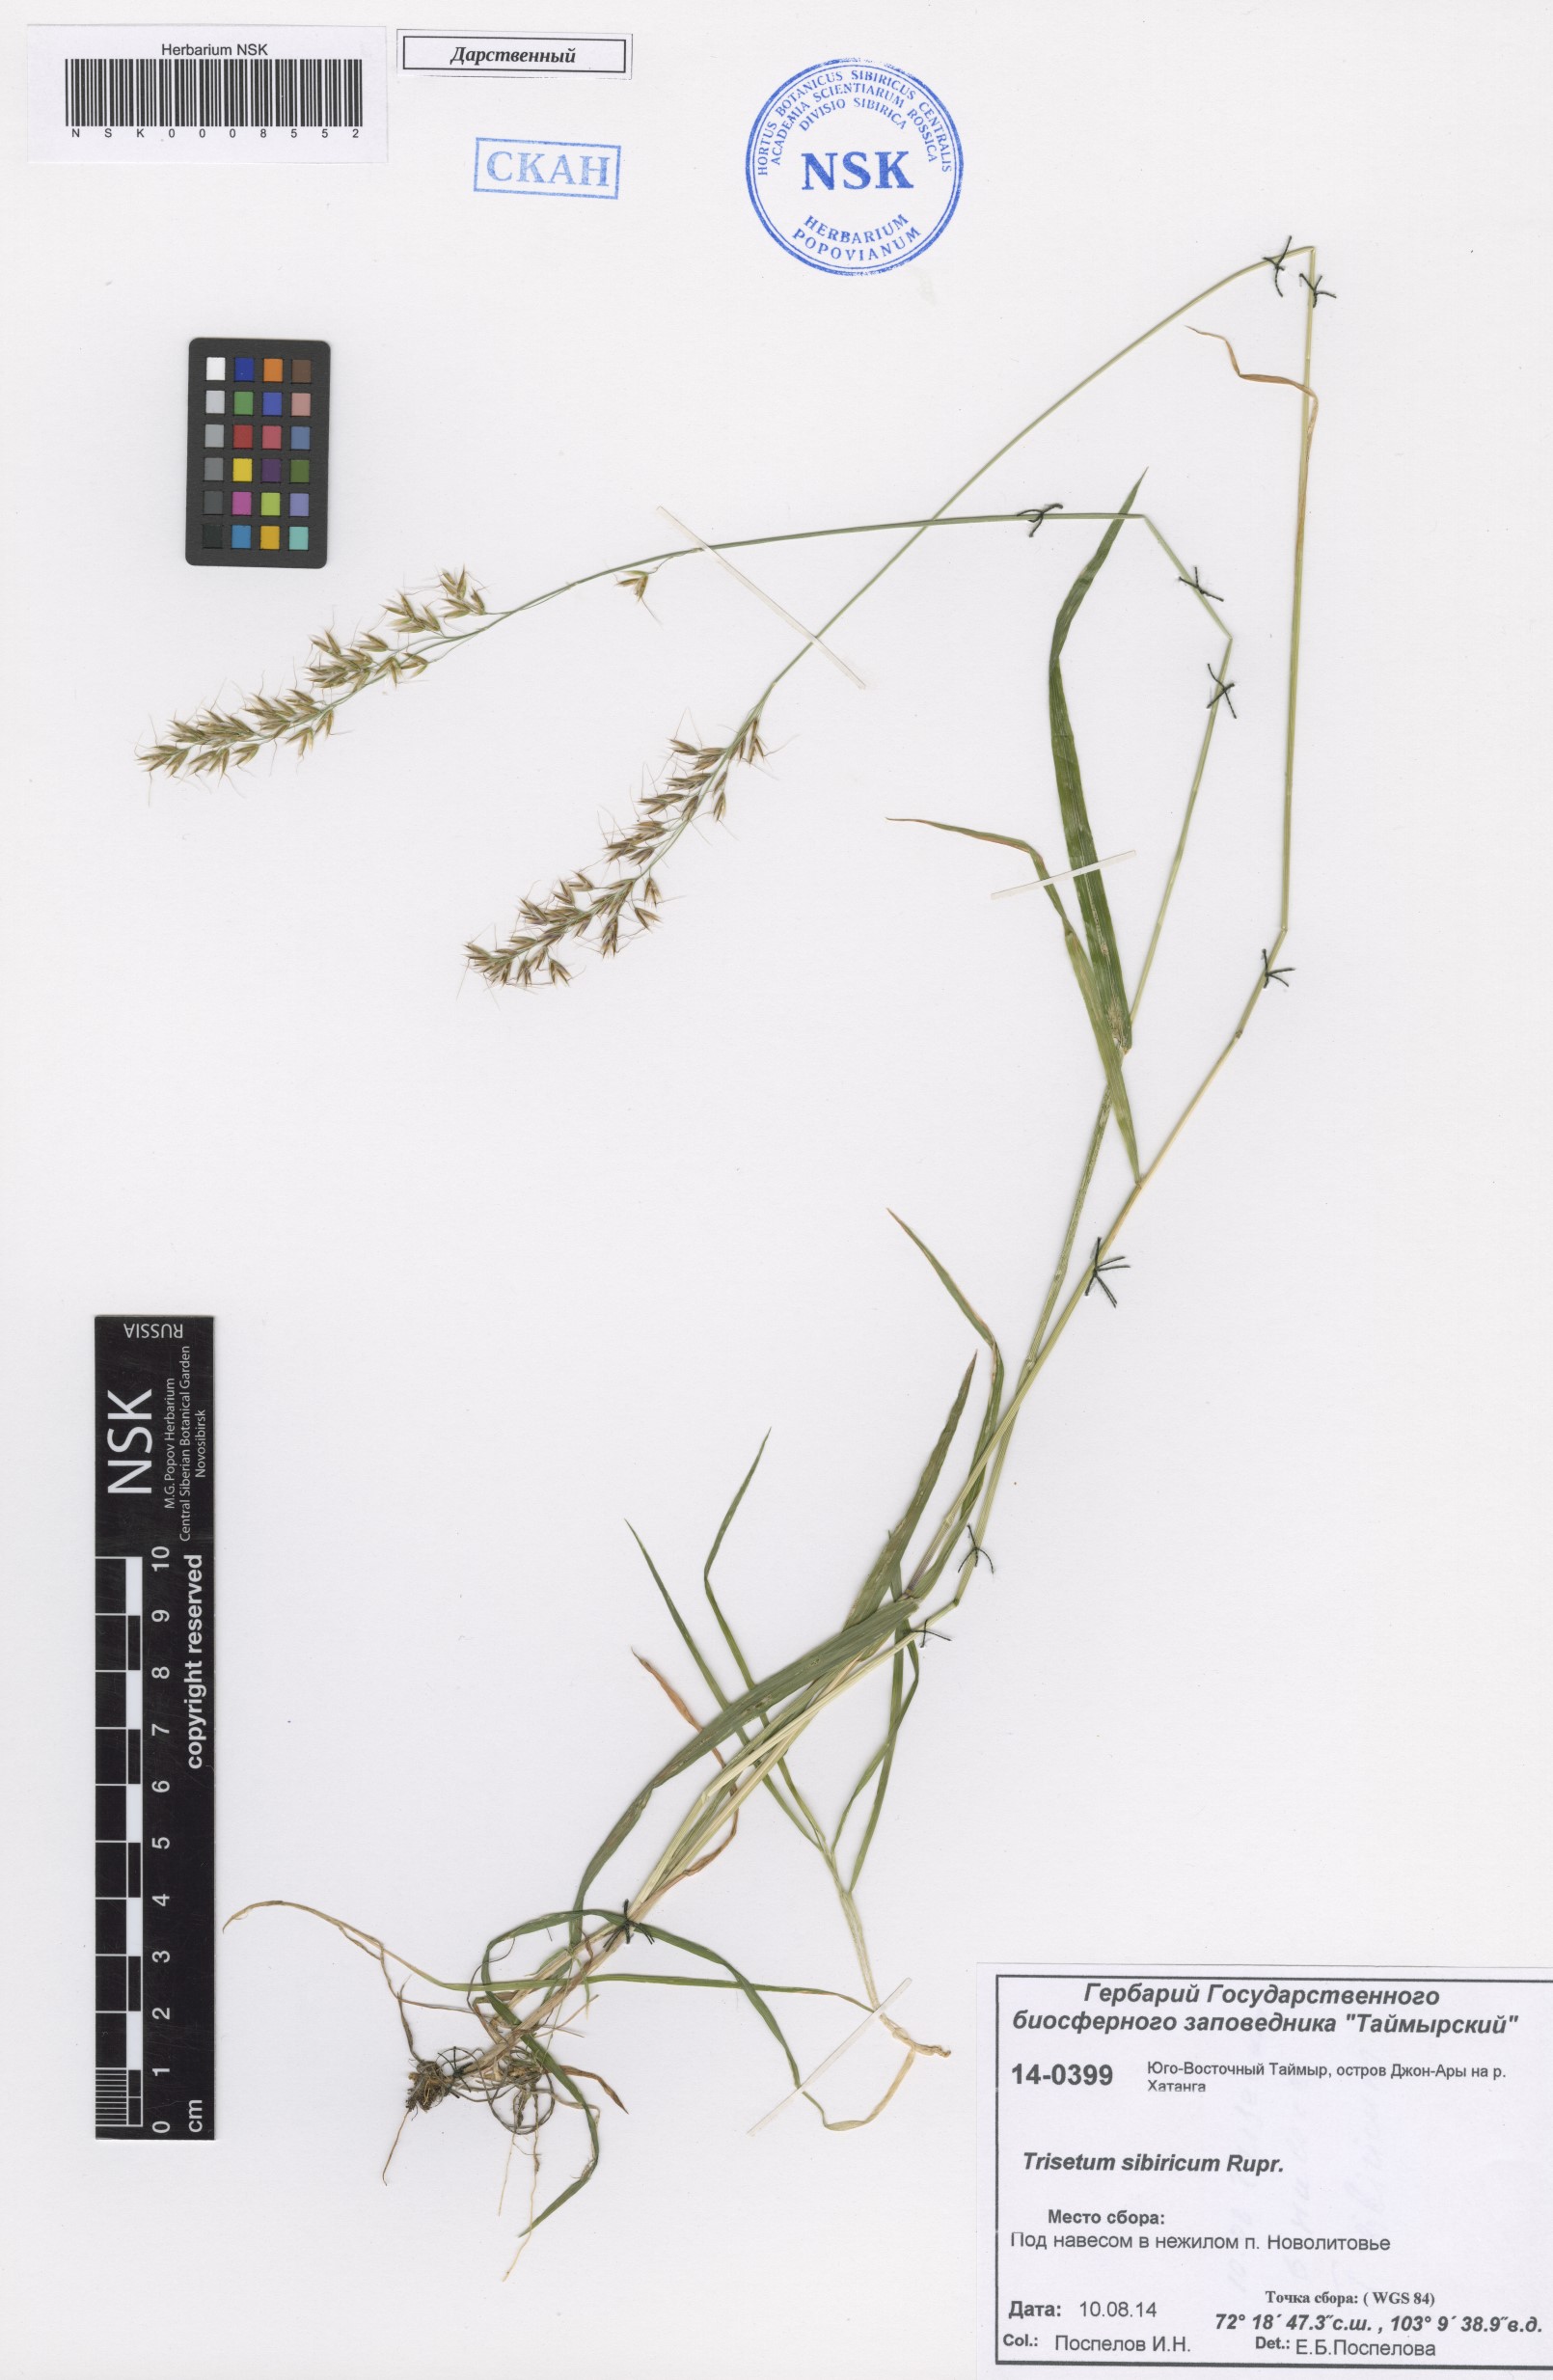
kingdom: Plantae
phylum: Tracheophyta
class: Liliopsida
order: Poales
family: Poaceae
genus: Sibirotrisetum
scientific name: Sibirotrisetum sibiricum
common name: Siberian false oat
